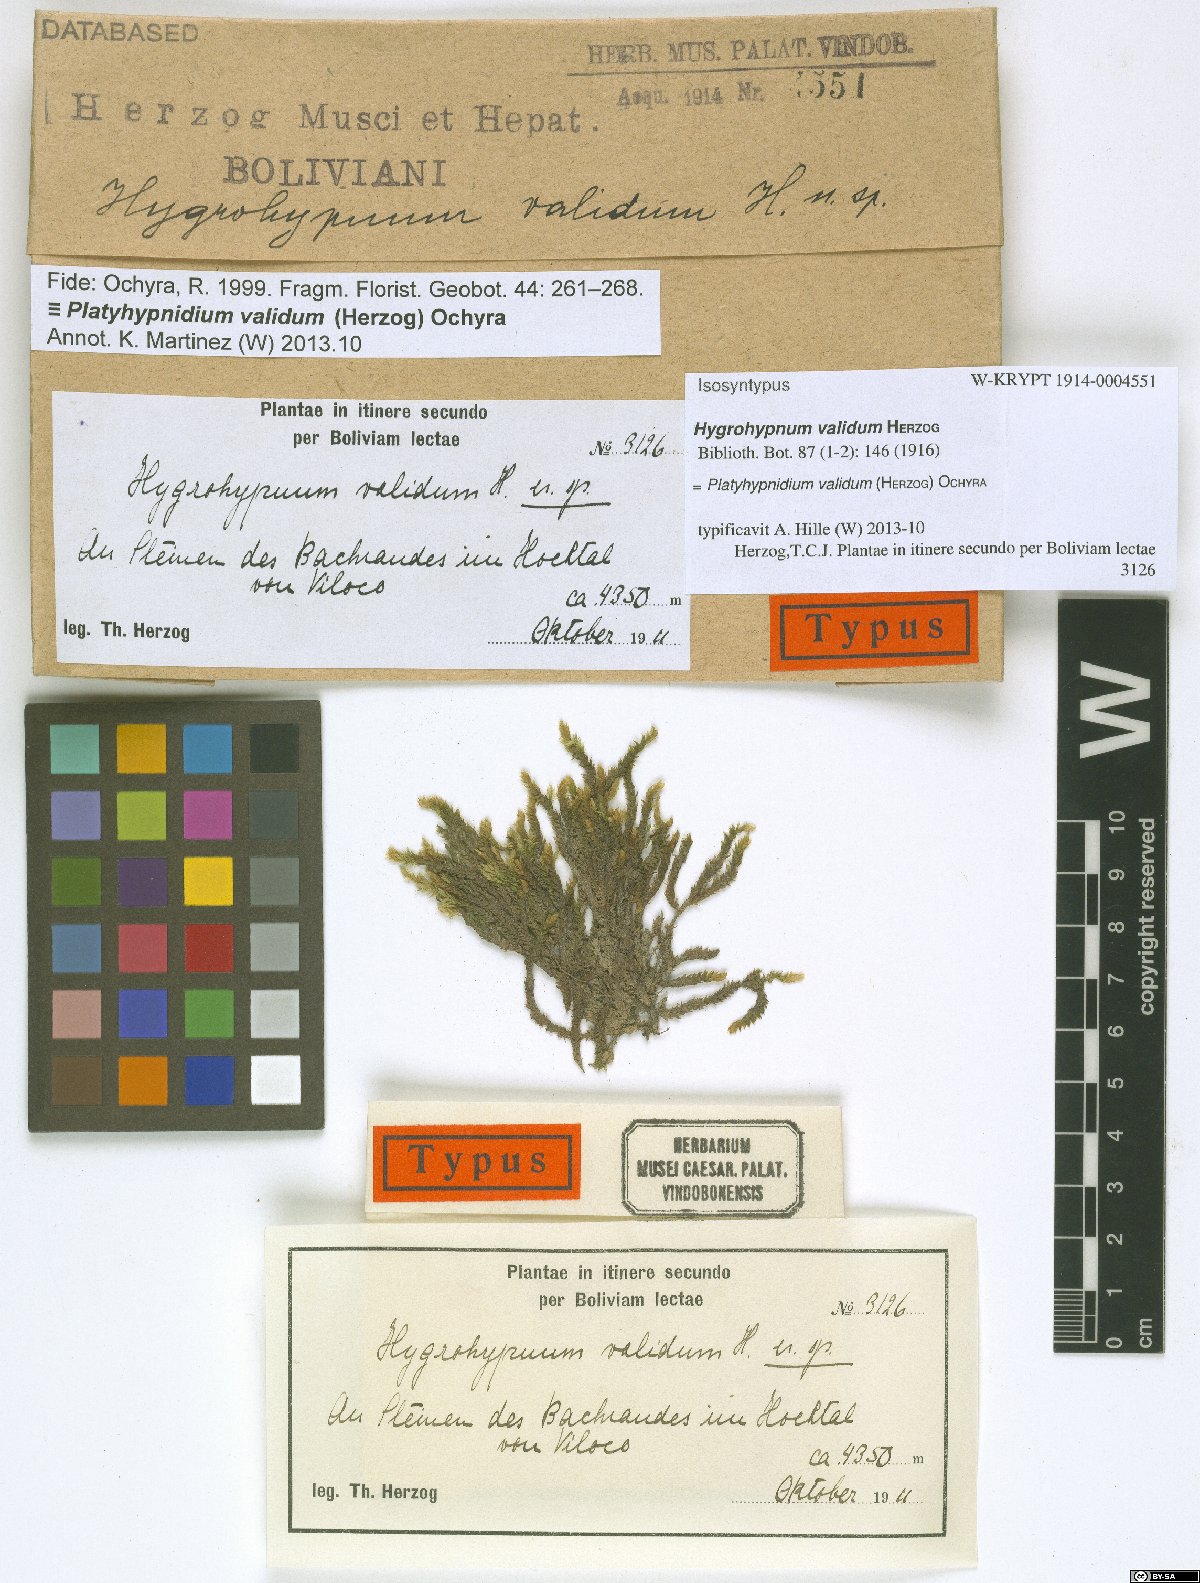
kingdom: Plantae
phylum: Bryophyta
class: Bryopsida
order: Hypnales
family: Brachytheciaceae
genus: Rhynchostegium
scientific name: Rhynchostegium validum
